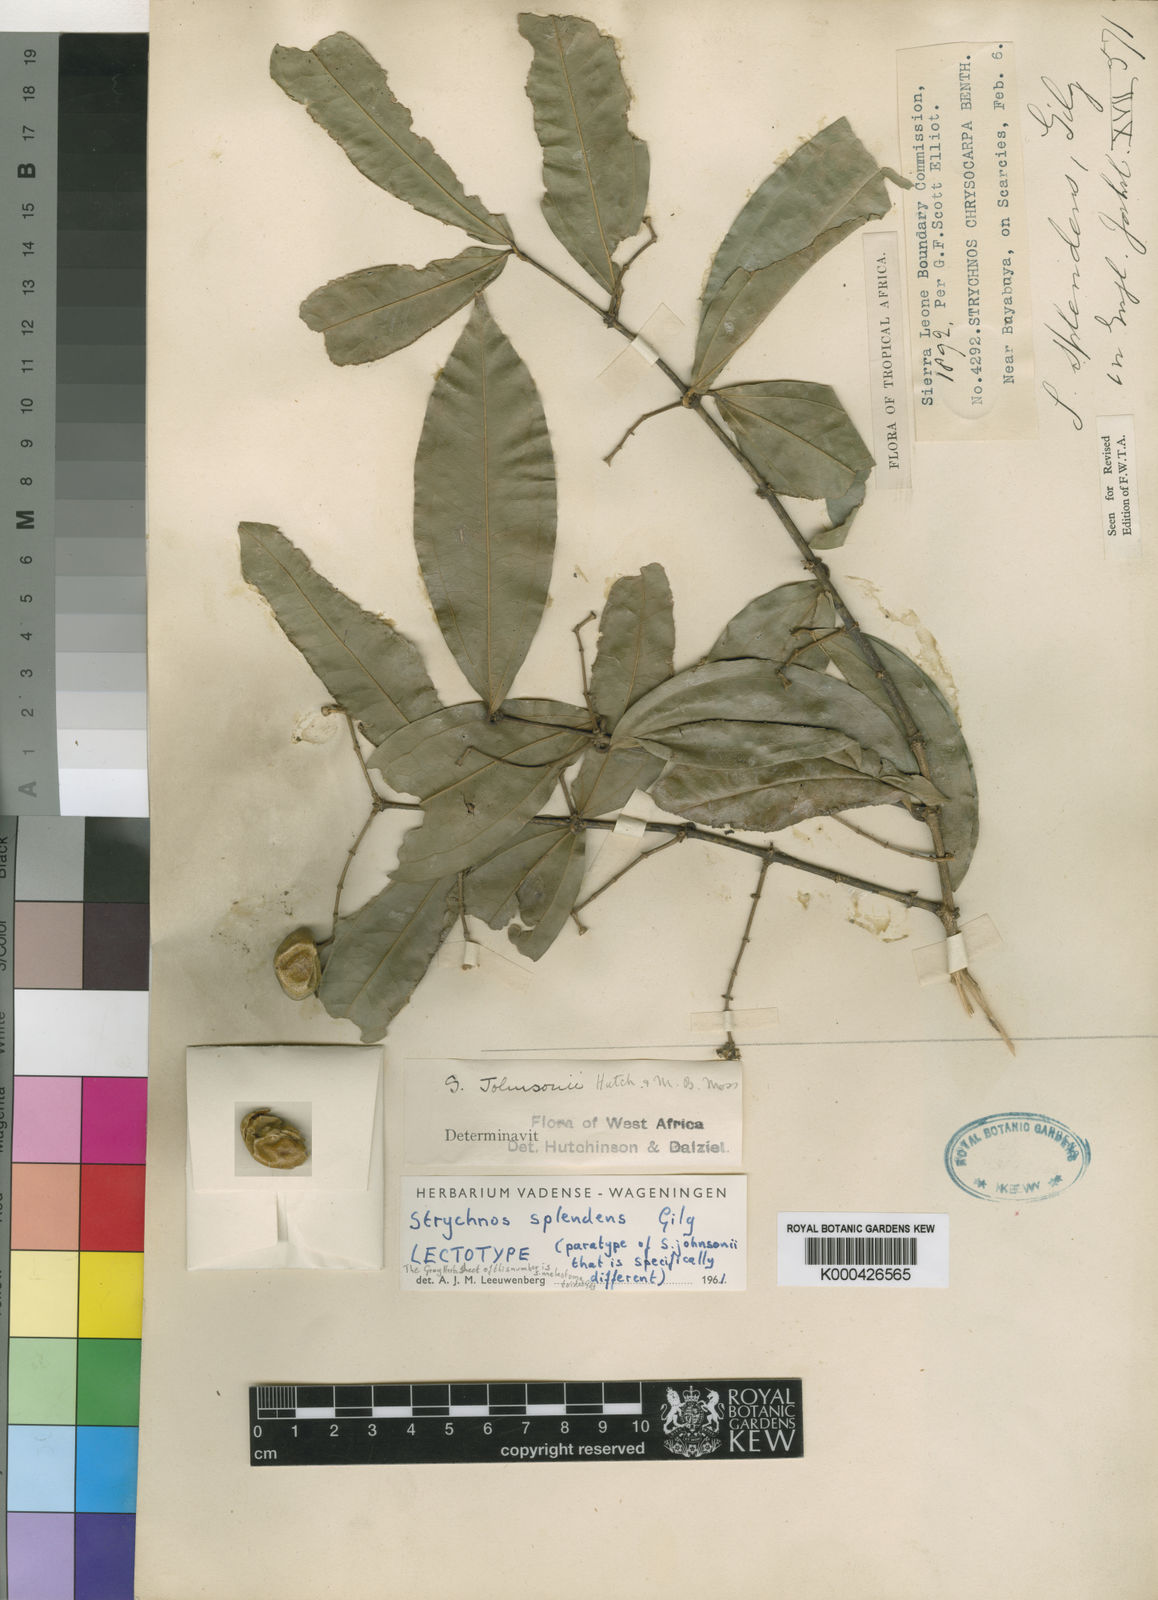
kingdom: Plantae
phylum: Tracheophyta
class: Magnoliopsida
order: Gentianales
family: Loganiaceae
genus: Strychnos
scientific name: Strychnos splendens
